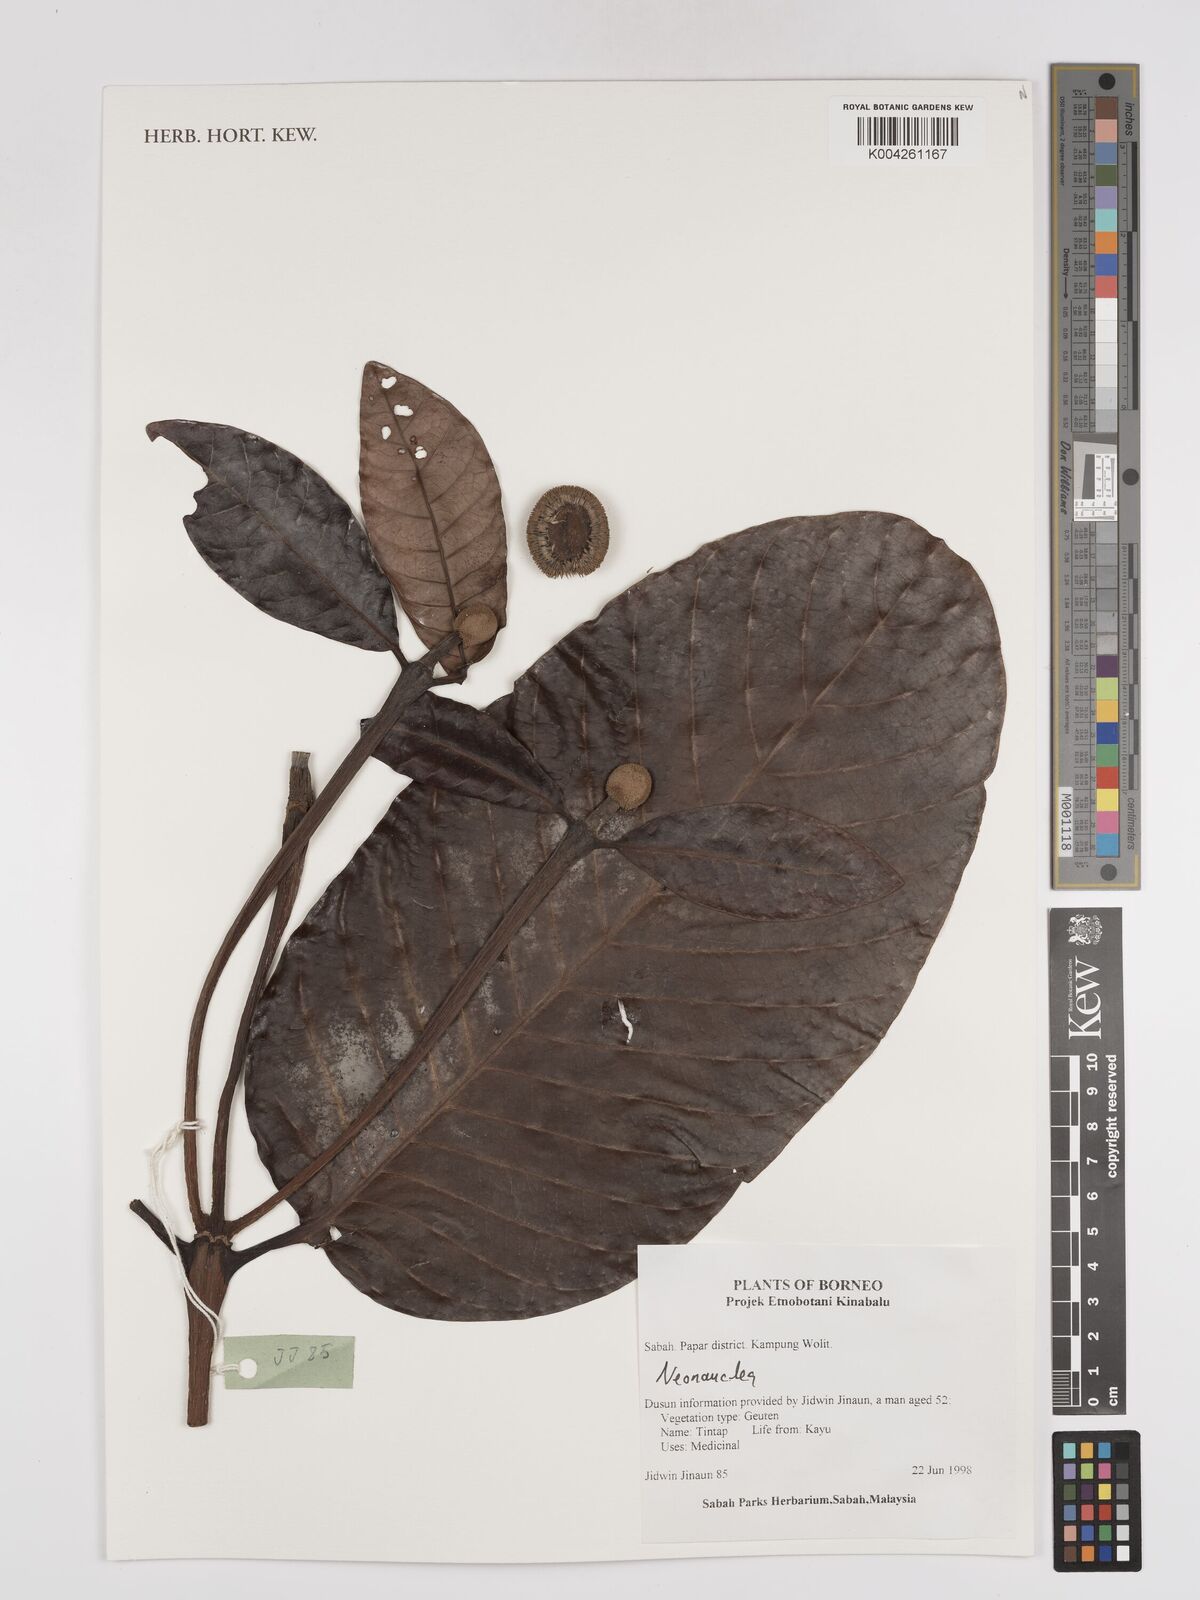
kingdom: Plantae
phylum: Tracheophyta
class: Magnoliopsida
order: Gentianales
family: Rubiaceae
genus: Neonauclea
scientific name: Neonauclea
